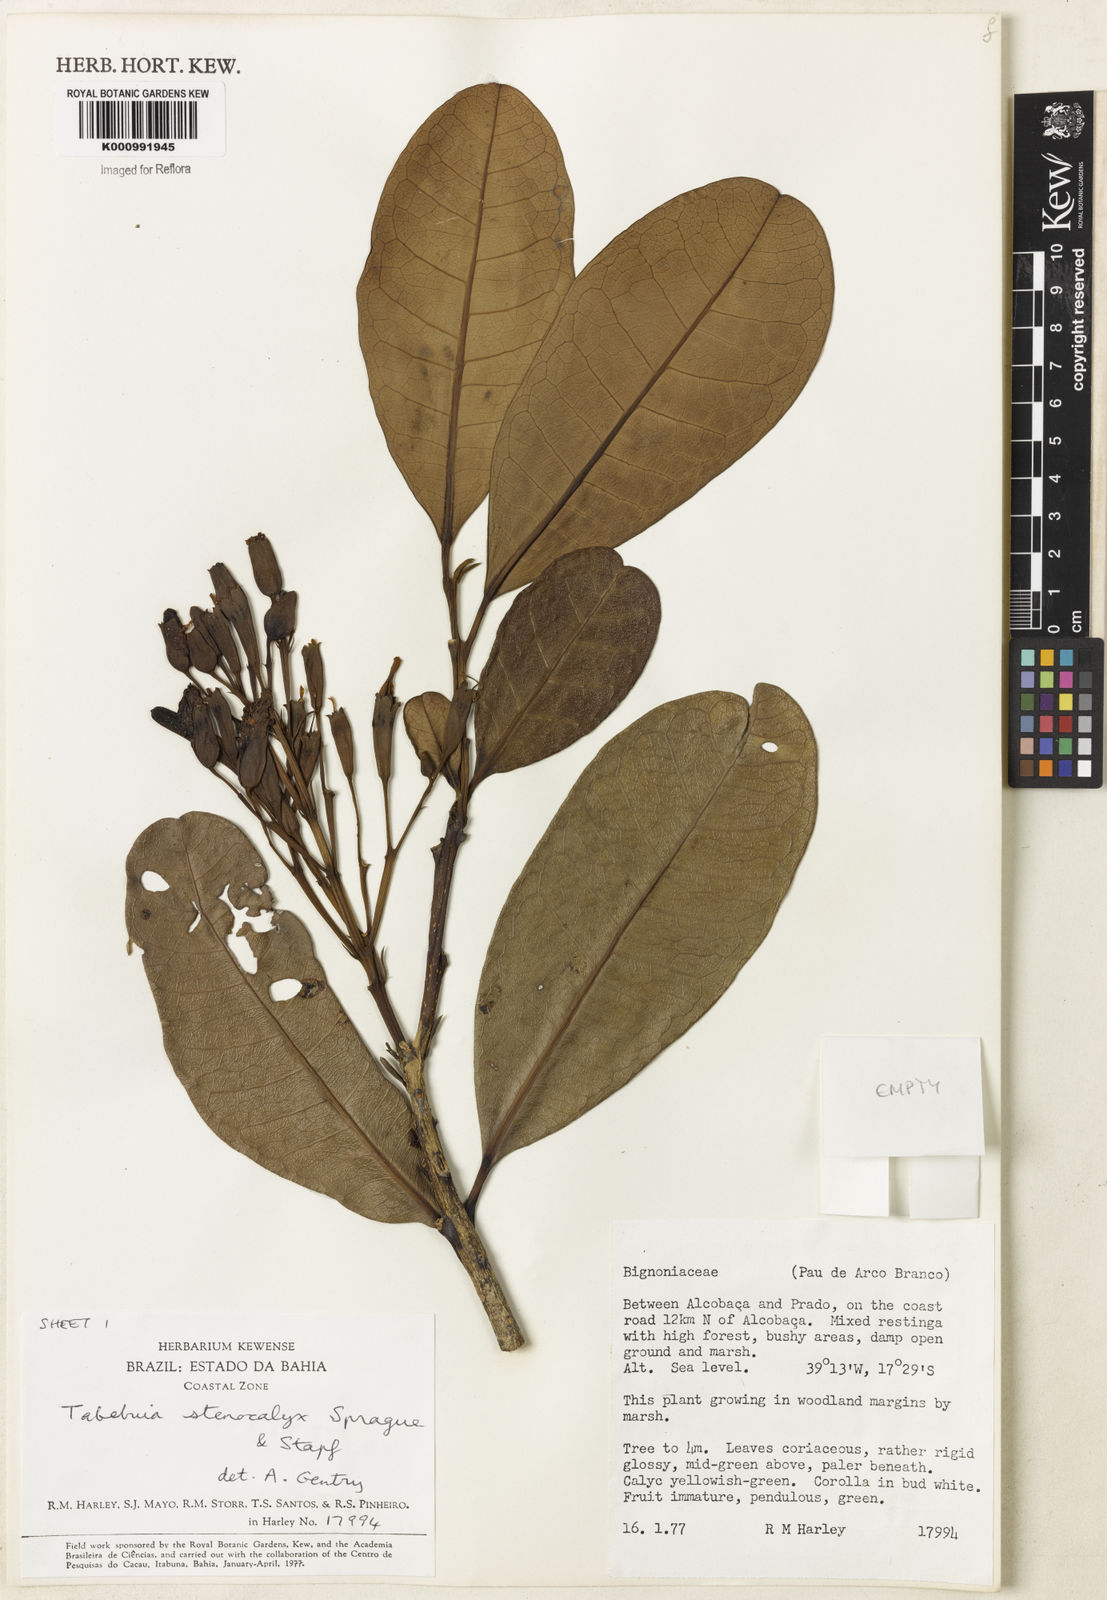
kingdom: Plantae
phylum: Tracheophyta
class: Magnoliopsida
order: Lamiales
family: Bignoniaceae
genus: Tabebuia
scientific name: Tabebuia stenocalyx
